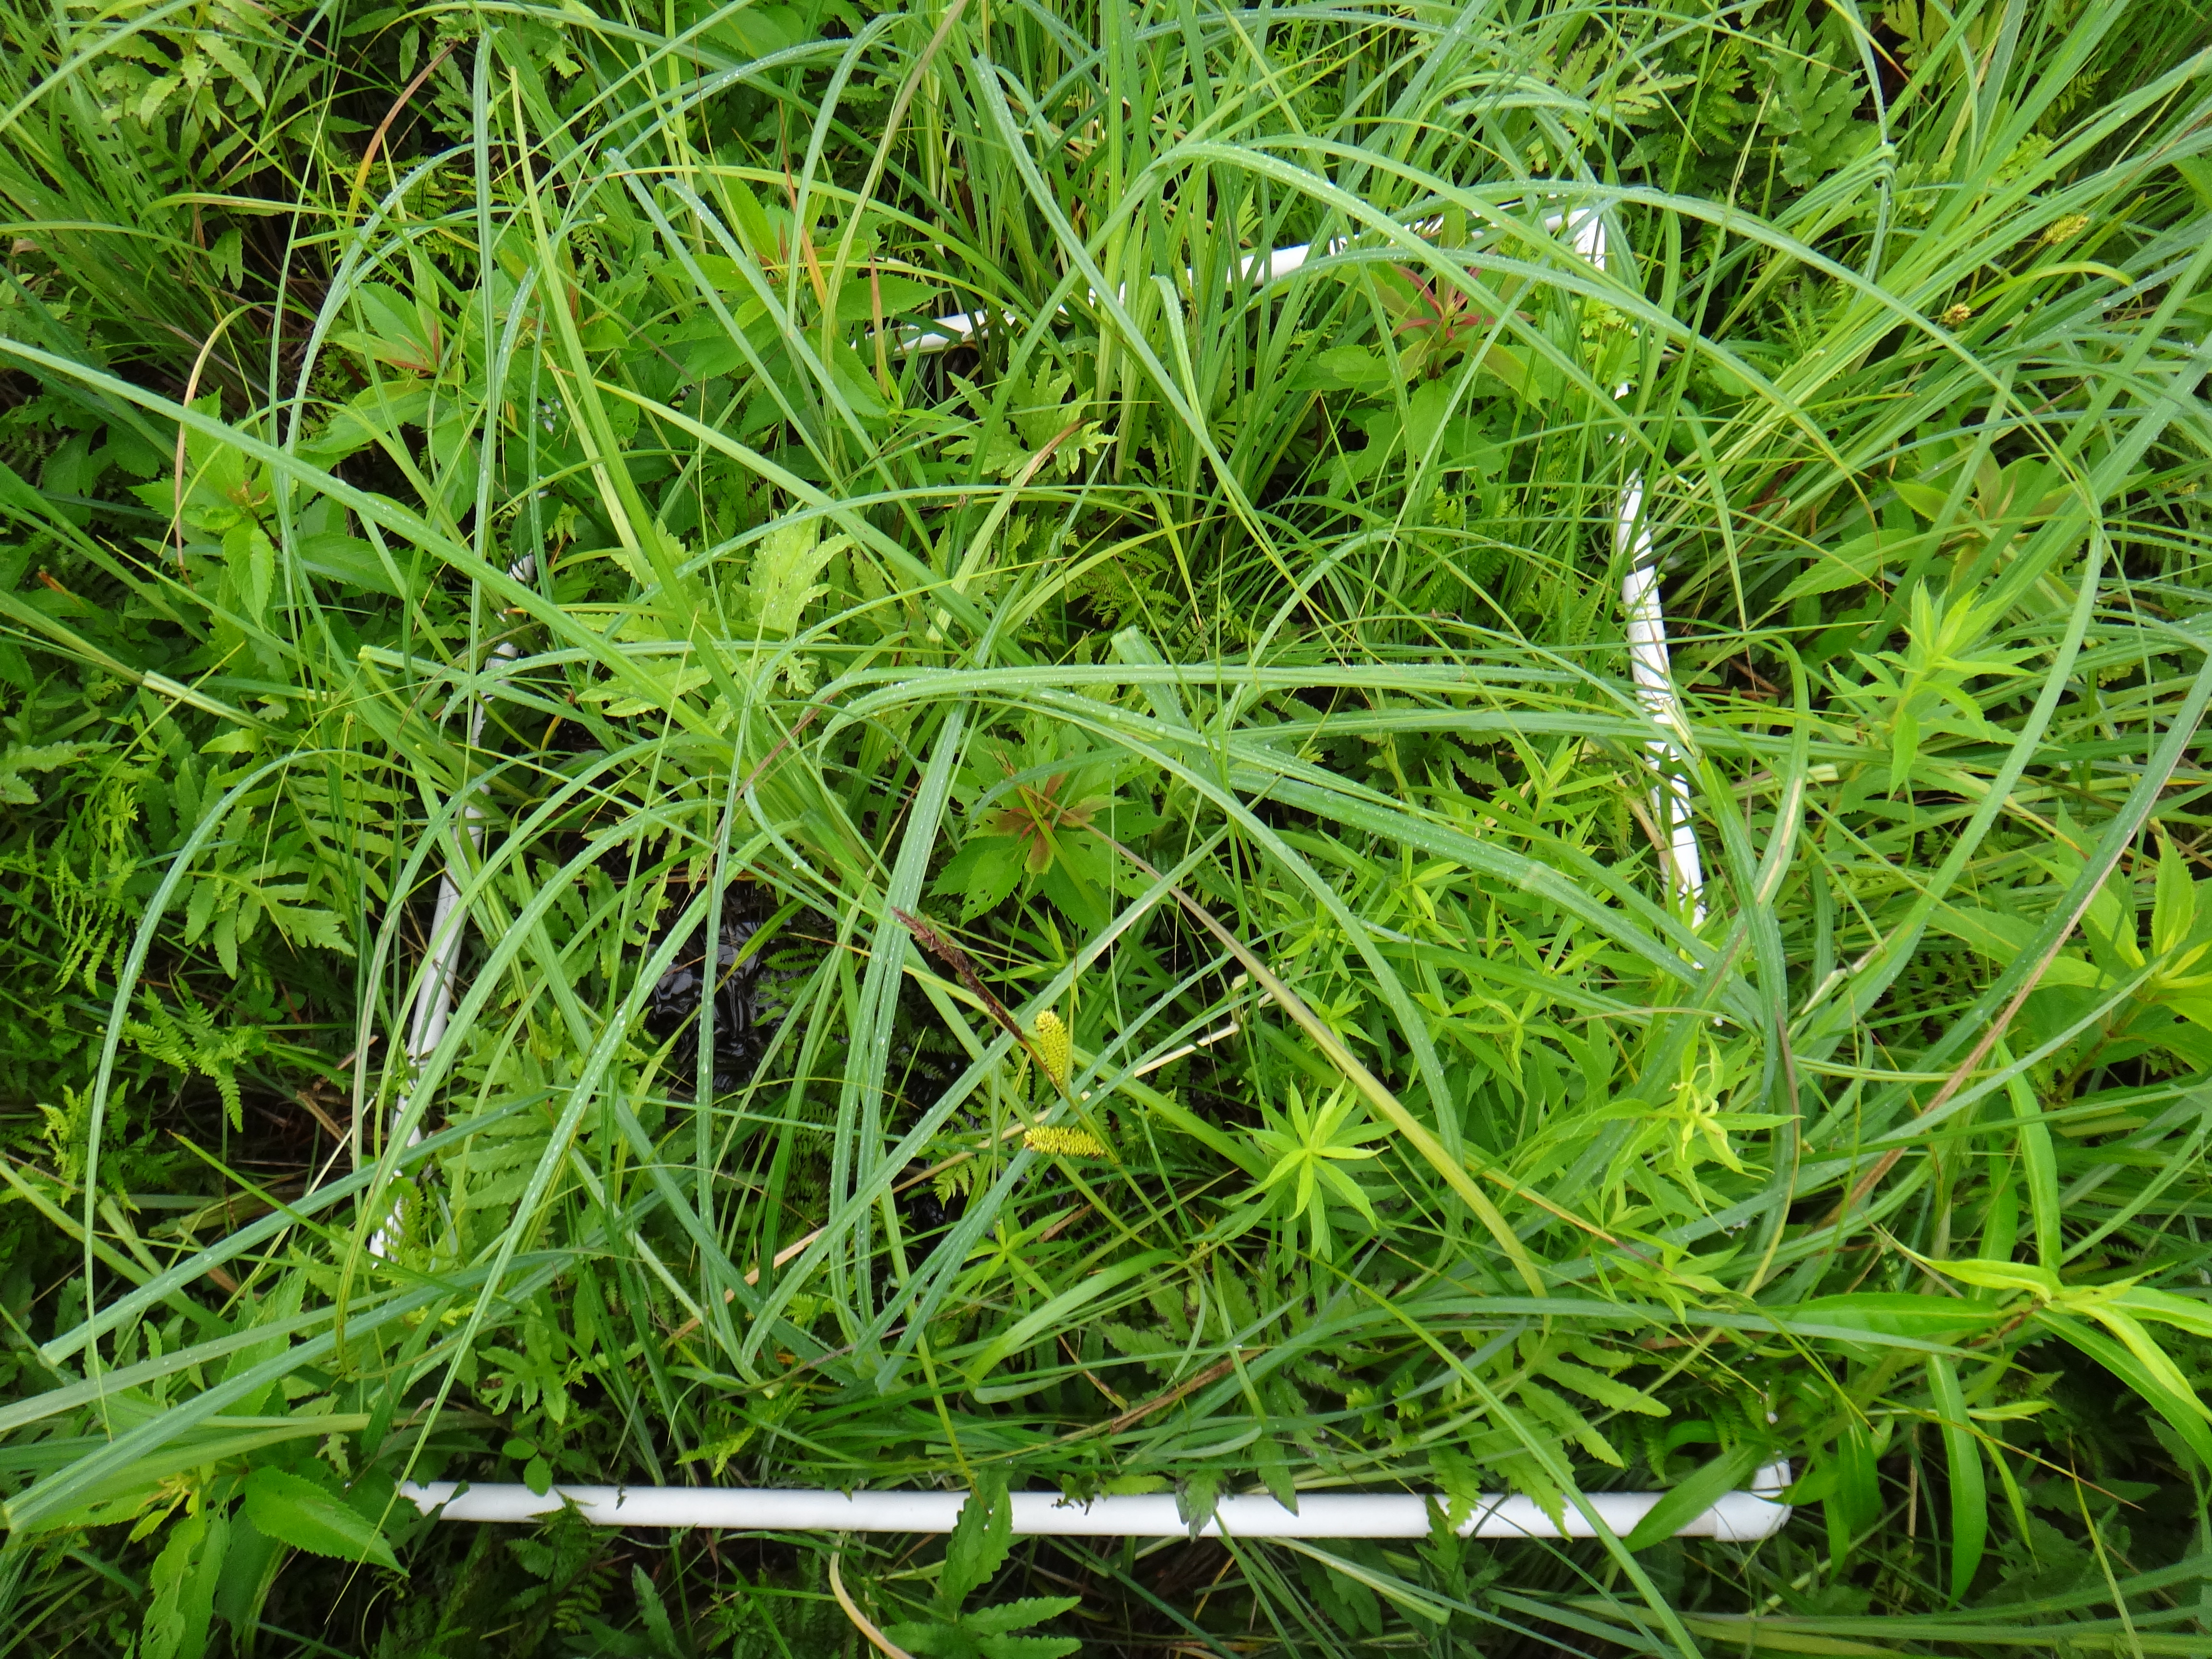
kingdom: Plantae
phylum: Tracheophyta
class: Polypodiopsida
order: Polypodiales
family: Onocleaceae
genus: Onoclea
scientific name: Onoclea sensibilis
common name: Sensitive fern
